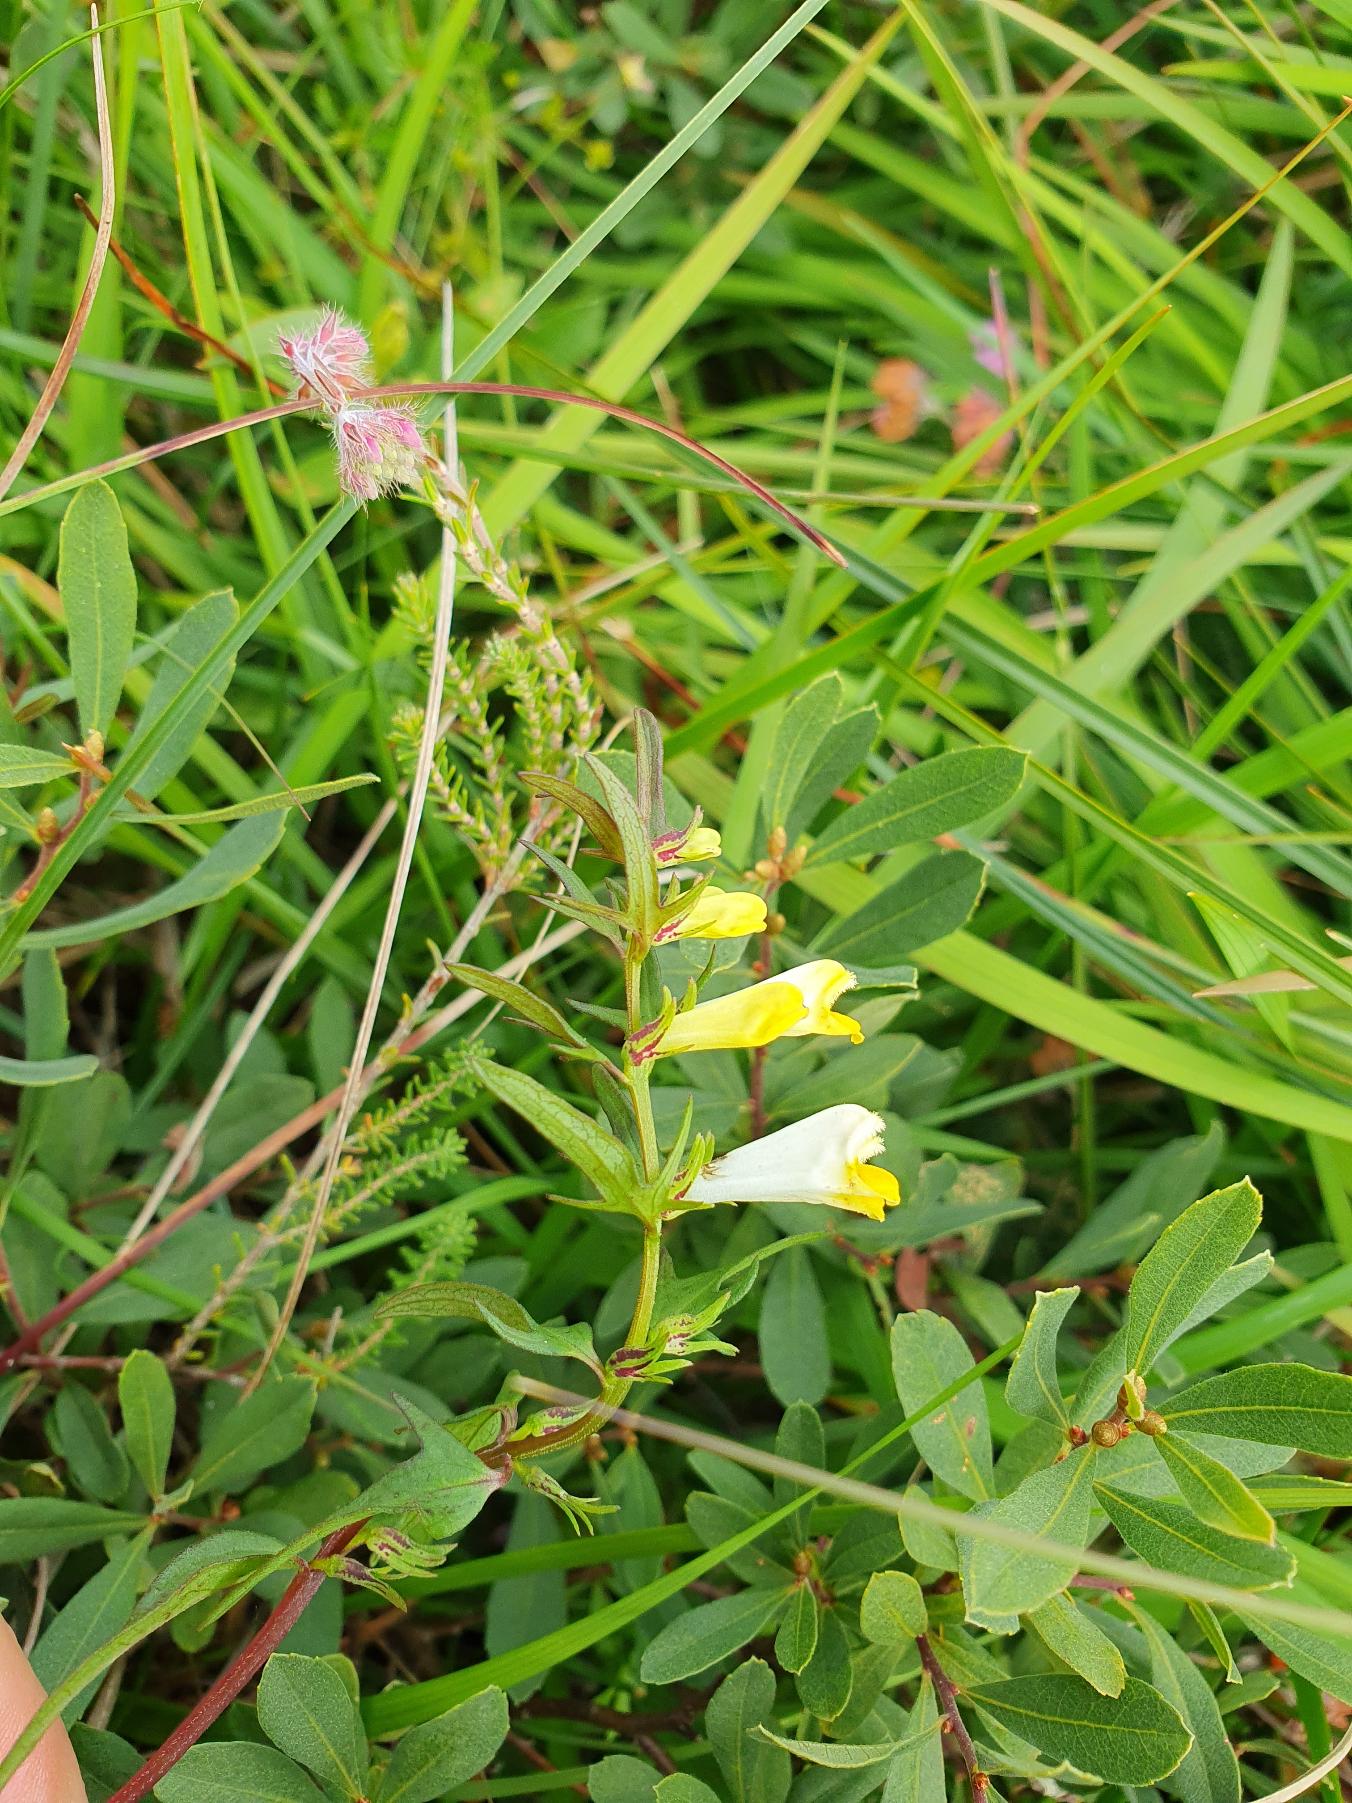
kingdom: Plantae
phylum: Tracheophyta
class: Magnoliopsida
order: Lamiales
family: Orobanchaceae
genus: Melampyrum
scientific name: Melampyrum pratense
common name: Almindelig kohvede
